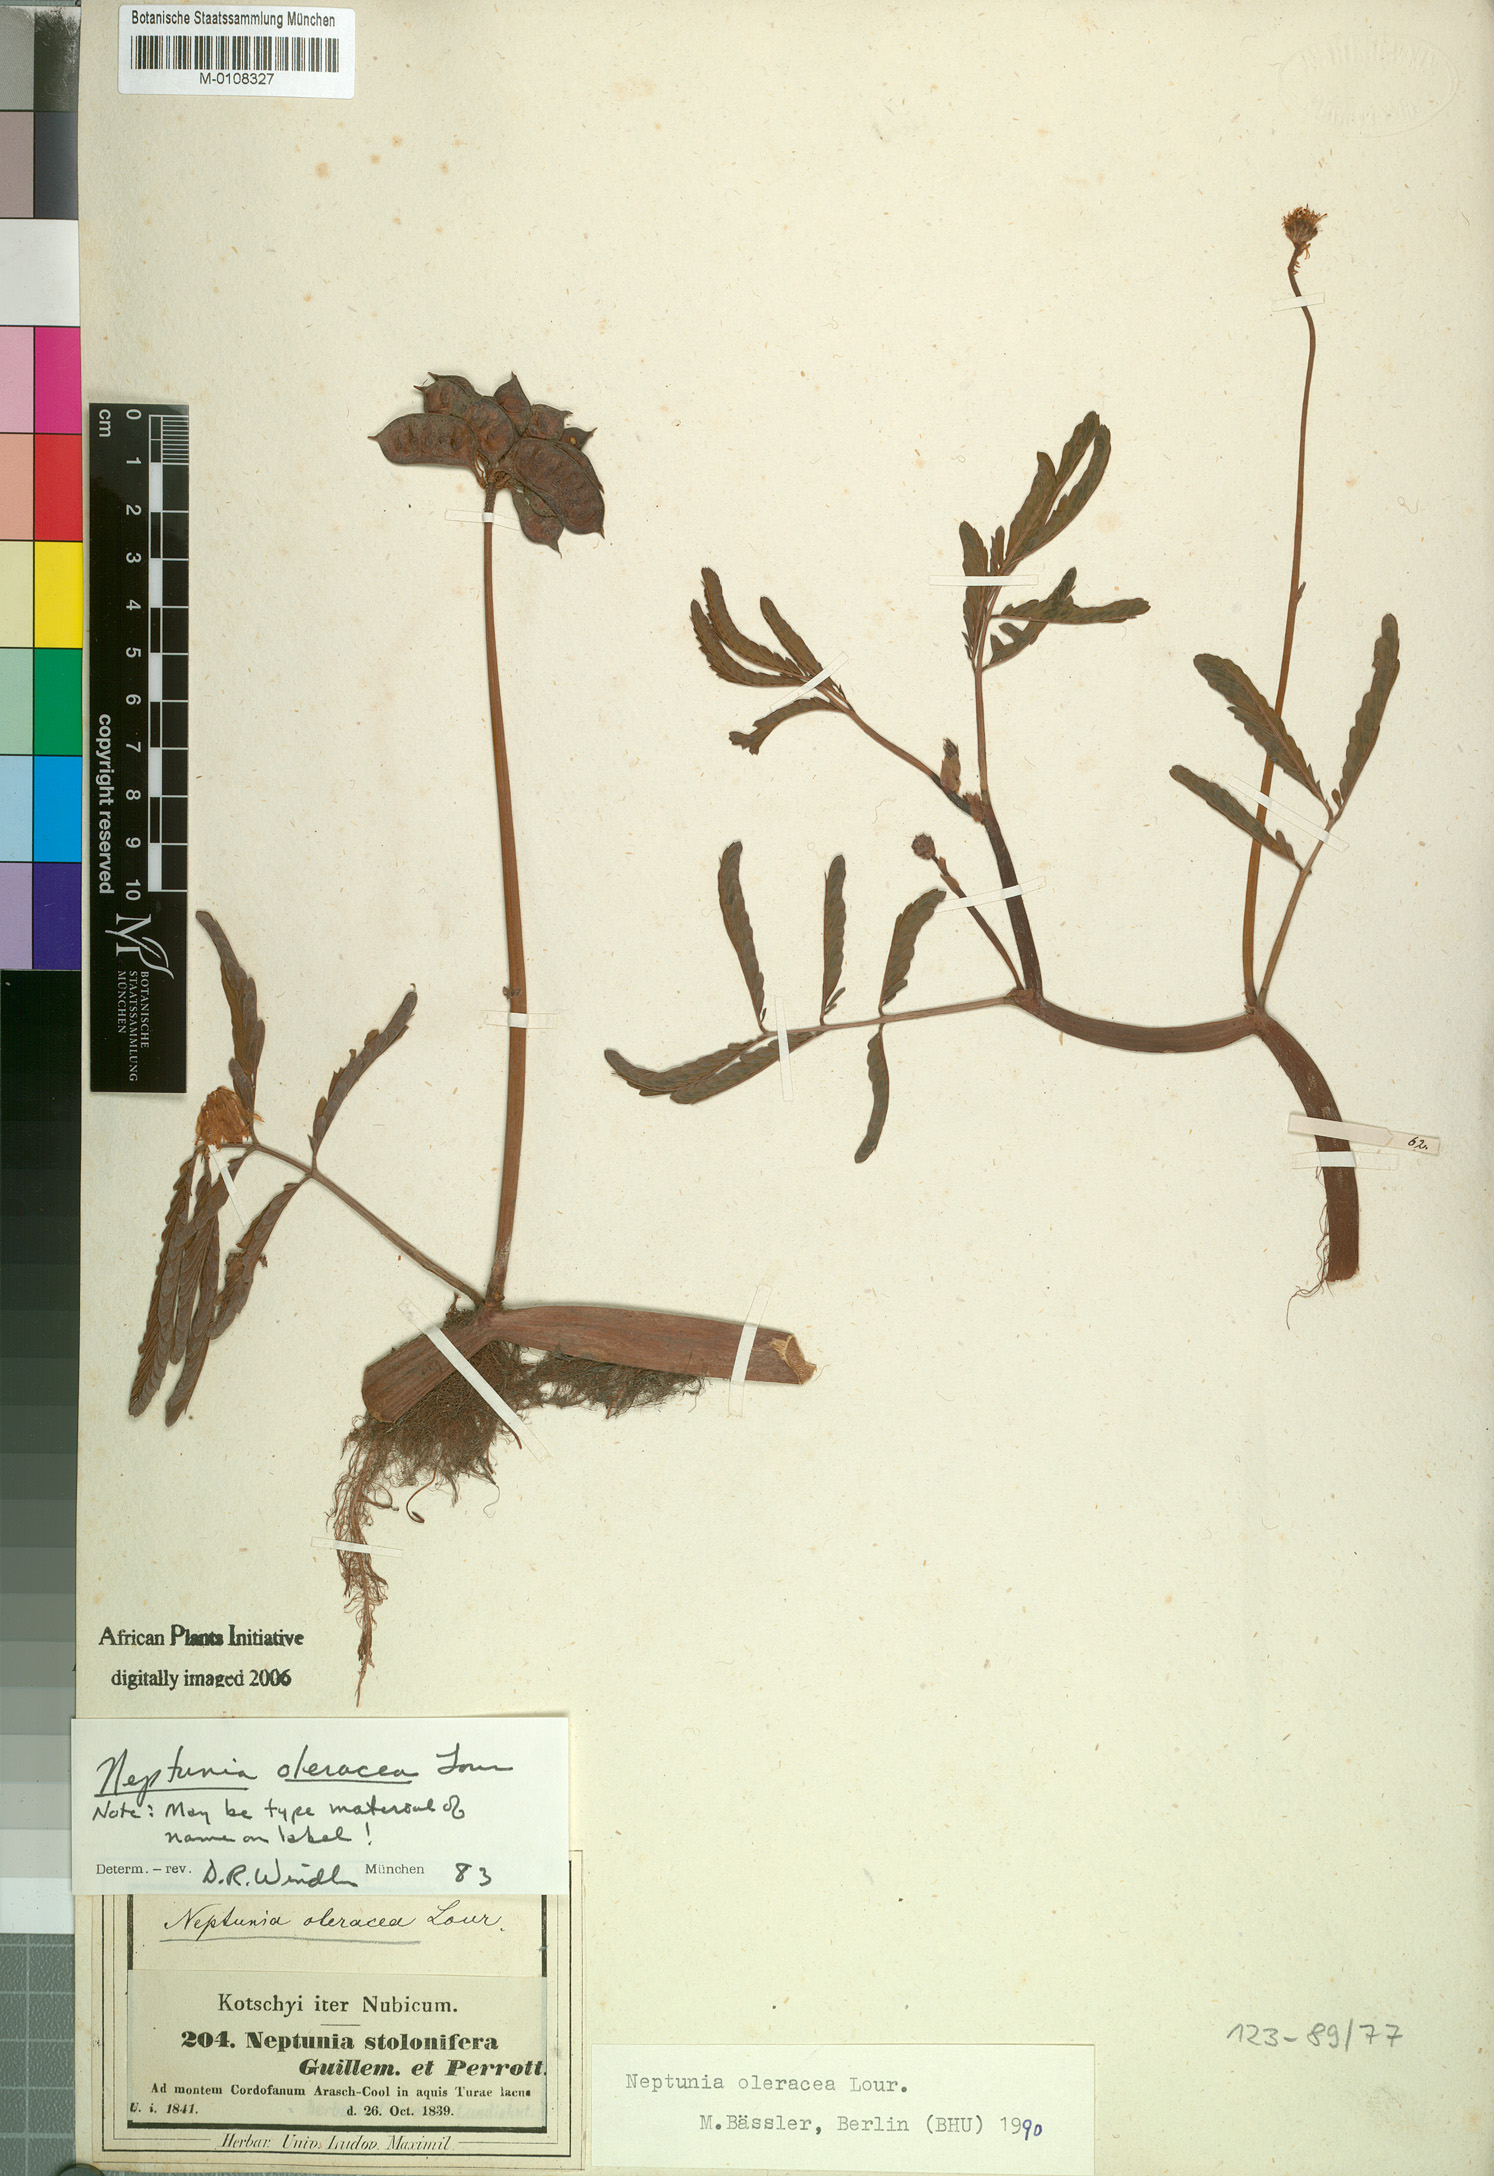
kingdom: Plantae
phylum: Tracheophyta
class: Magnoliopsida
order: Fabales
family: Fabaceae
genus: Neptunia
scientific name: Neptunia prostrata
